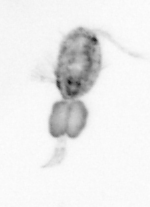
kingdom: Animalia
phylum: Arthropoda
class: Copepoda
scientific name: Copepoda
